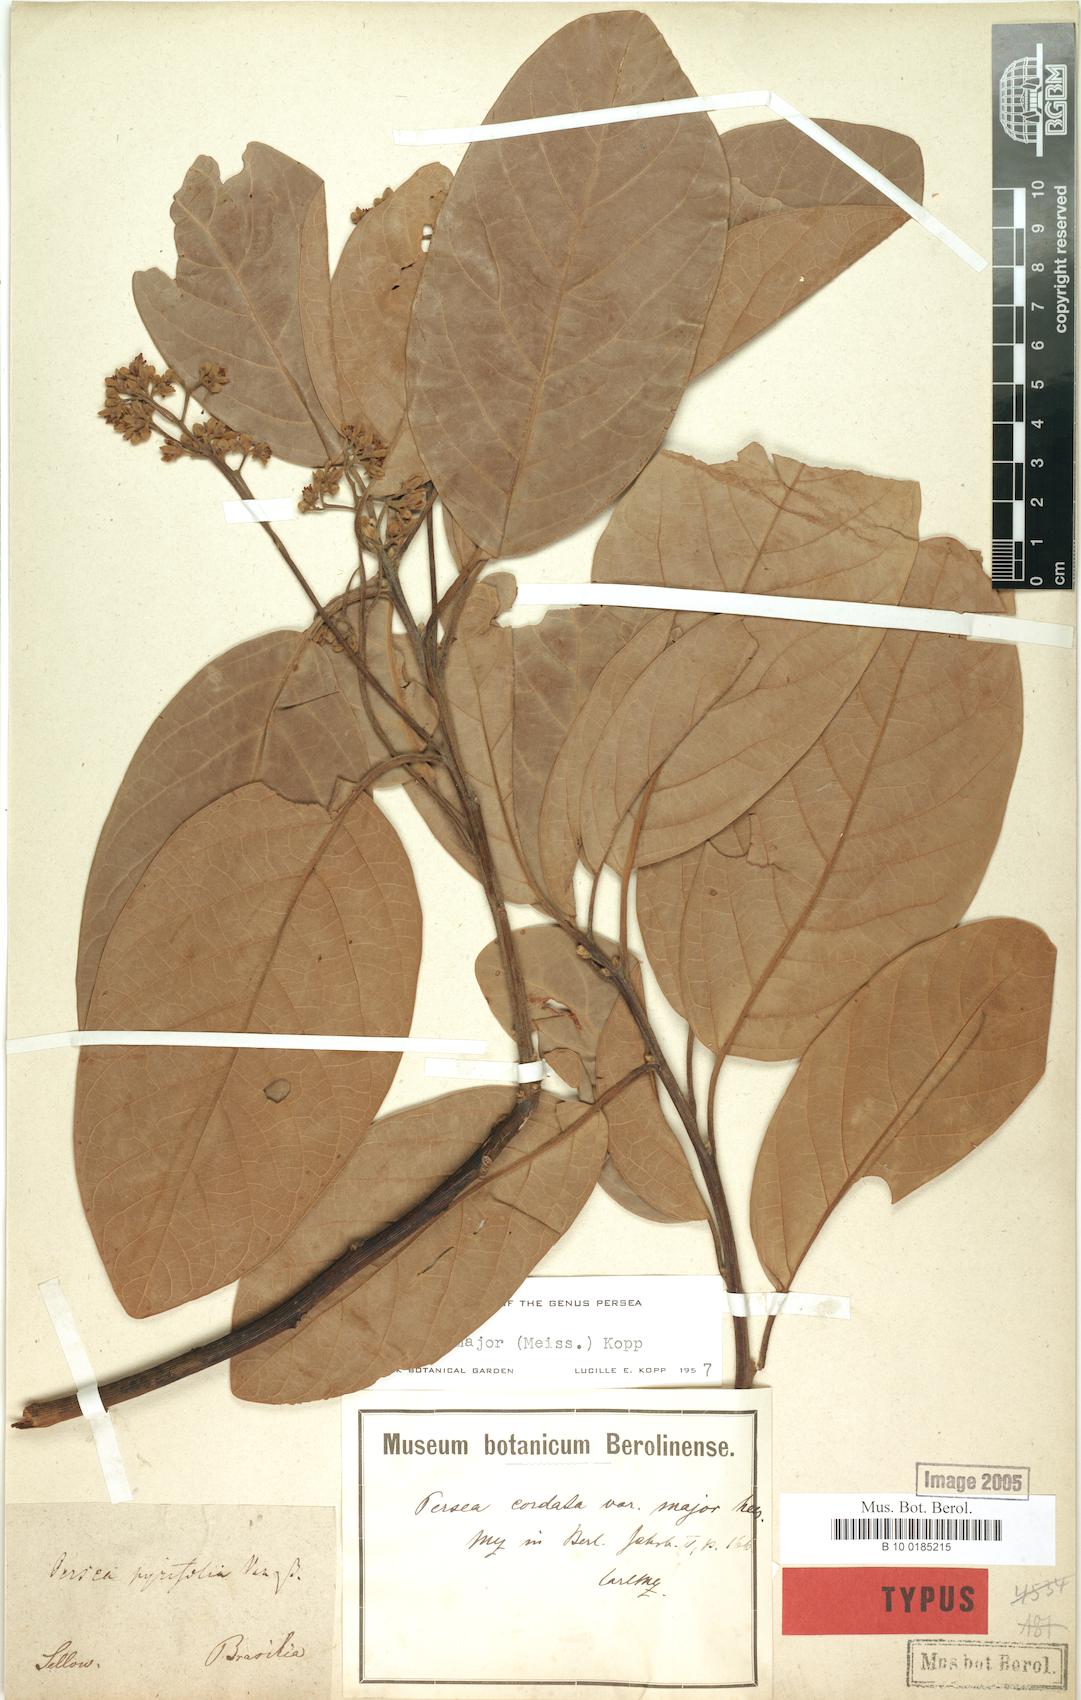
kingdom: Plantae
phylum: Tracheophyta
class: Magnoliopsida
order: Laurales
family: Lauraceae
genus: Persea
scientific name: Persea major
